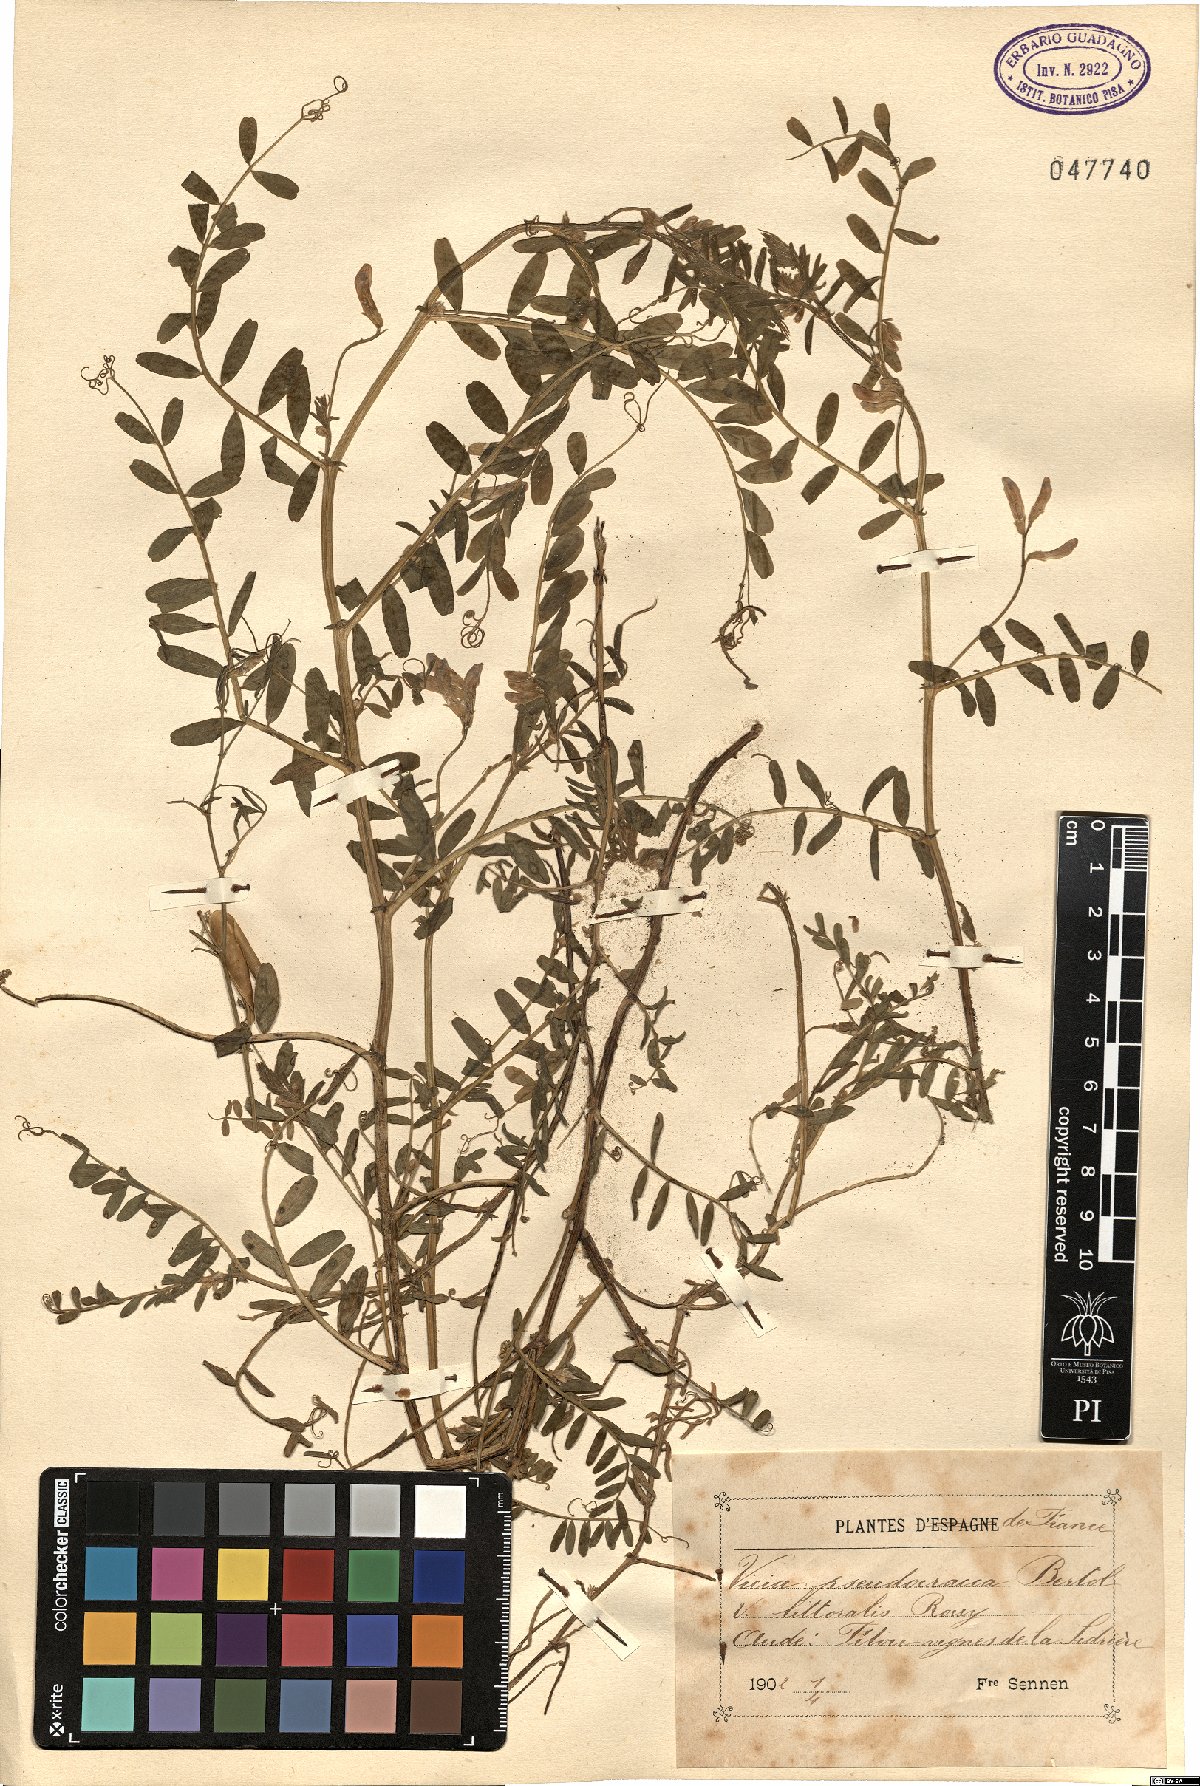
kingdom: Plantae
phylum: Tracheophyta
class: Magnoliopsida
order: Fabales
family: Fabaceae
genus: Vicia
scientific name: Vicia villosa
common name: Fodder vetch
